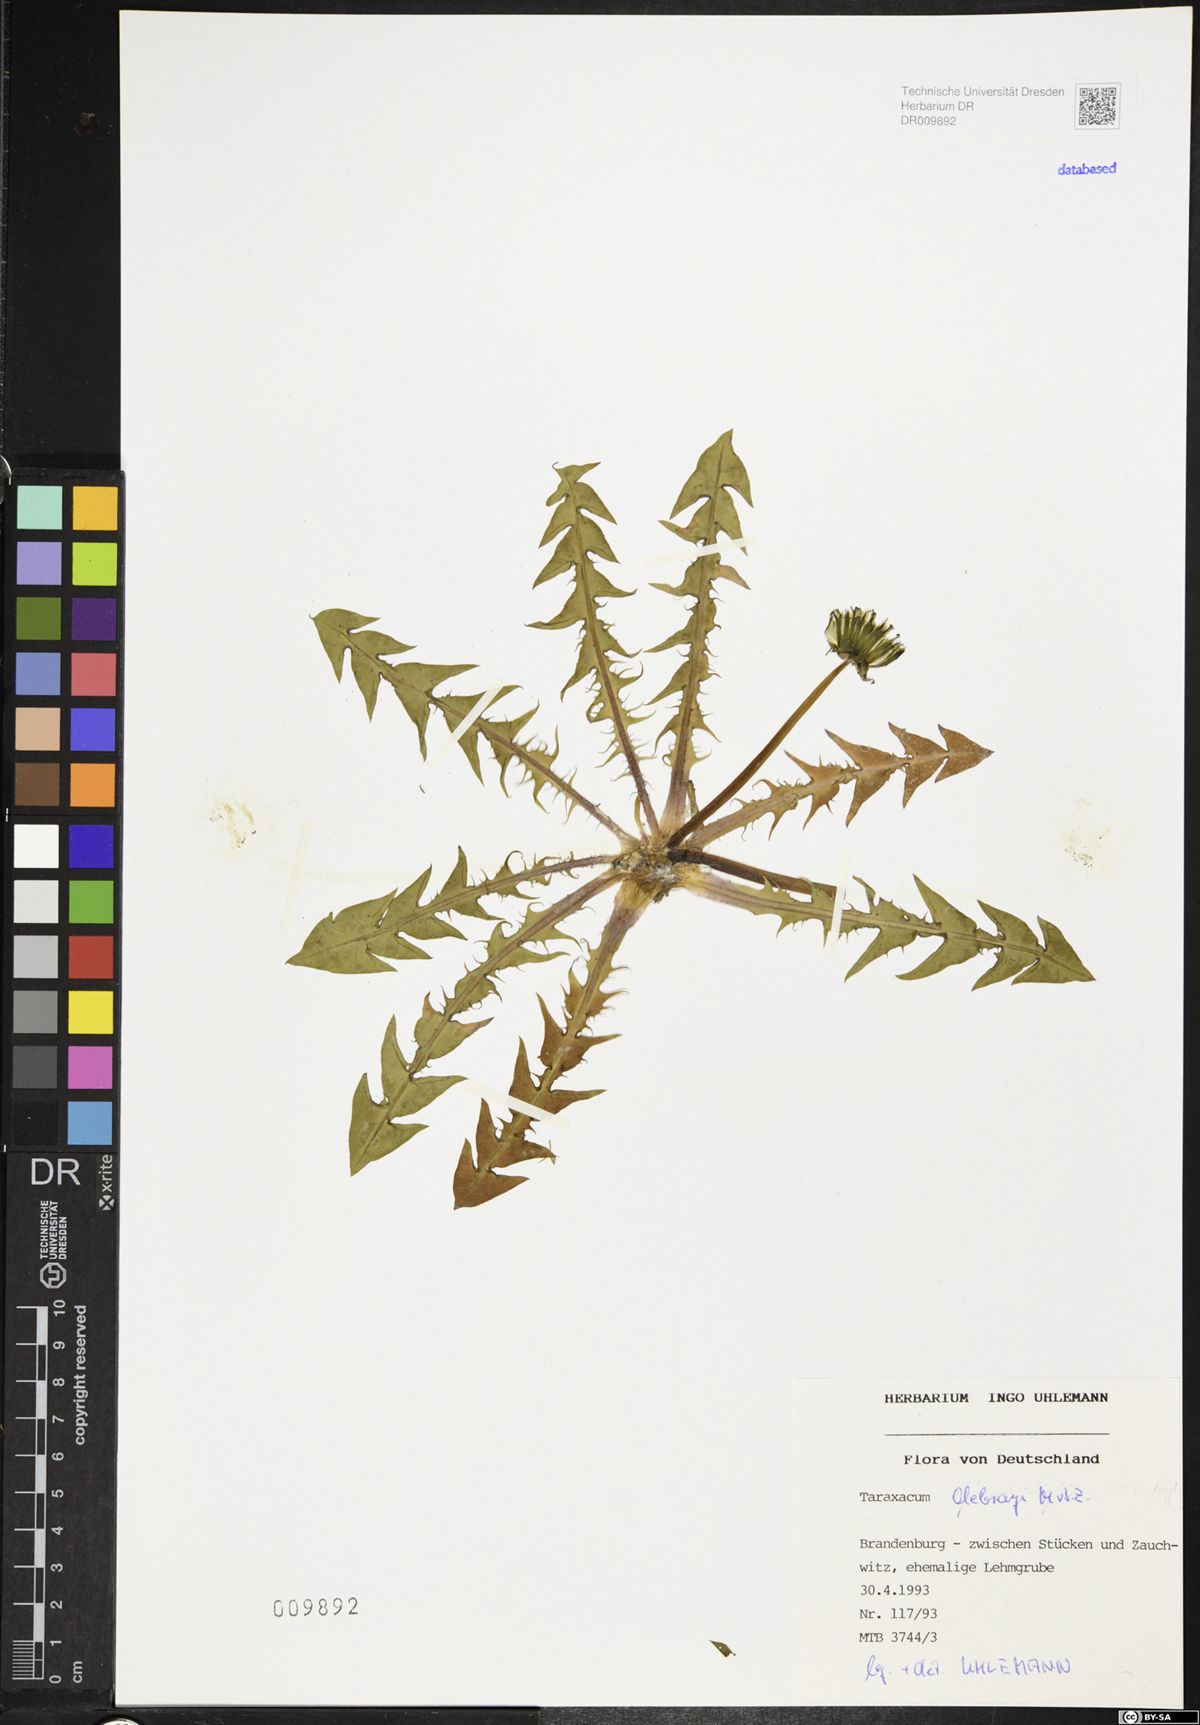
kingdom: Plantae
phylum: Tracheophyta
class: Magnoliopsida
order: Asterales
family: Asteraceae
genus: Taraxacum
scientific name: Taraxacum debrayi
